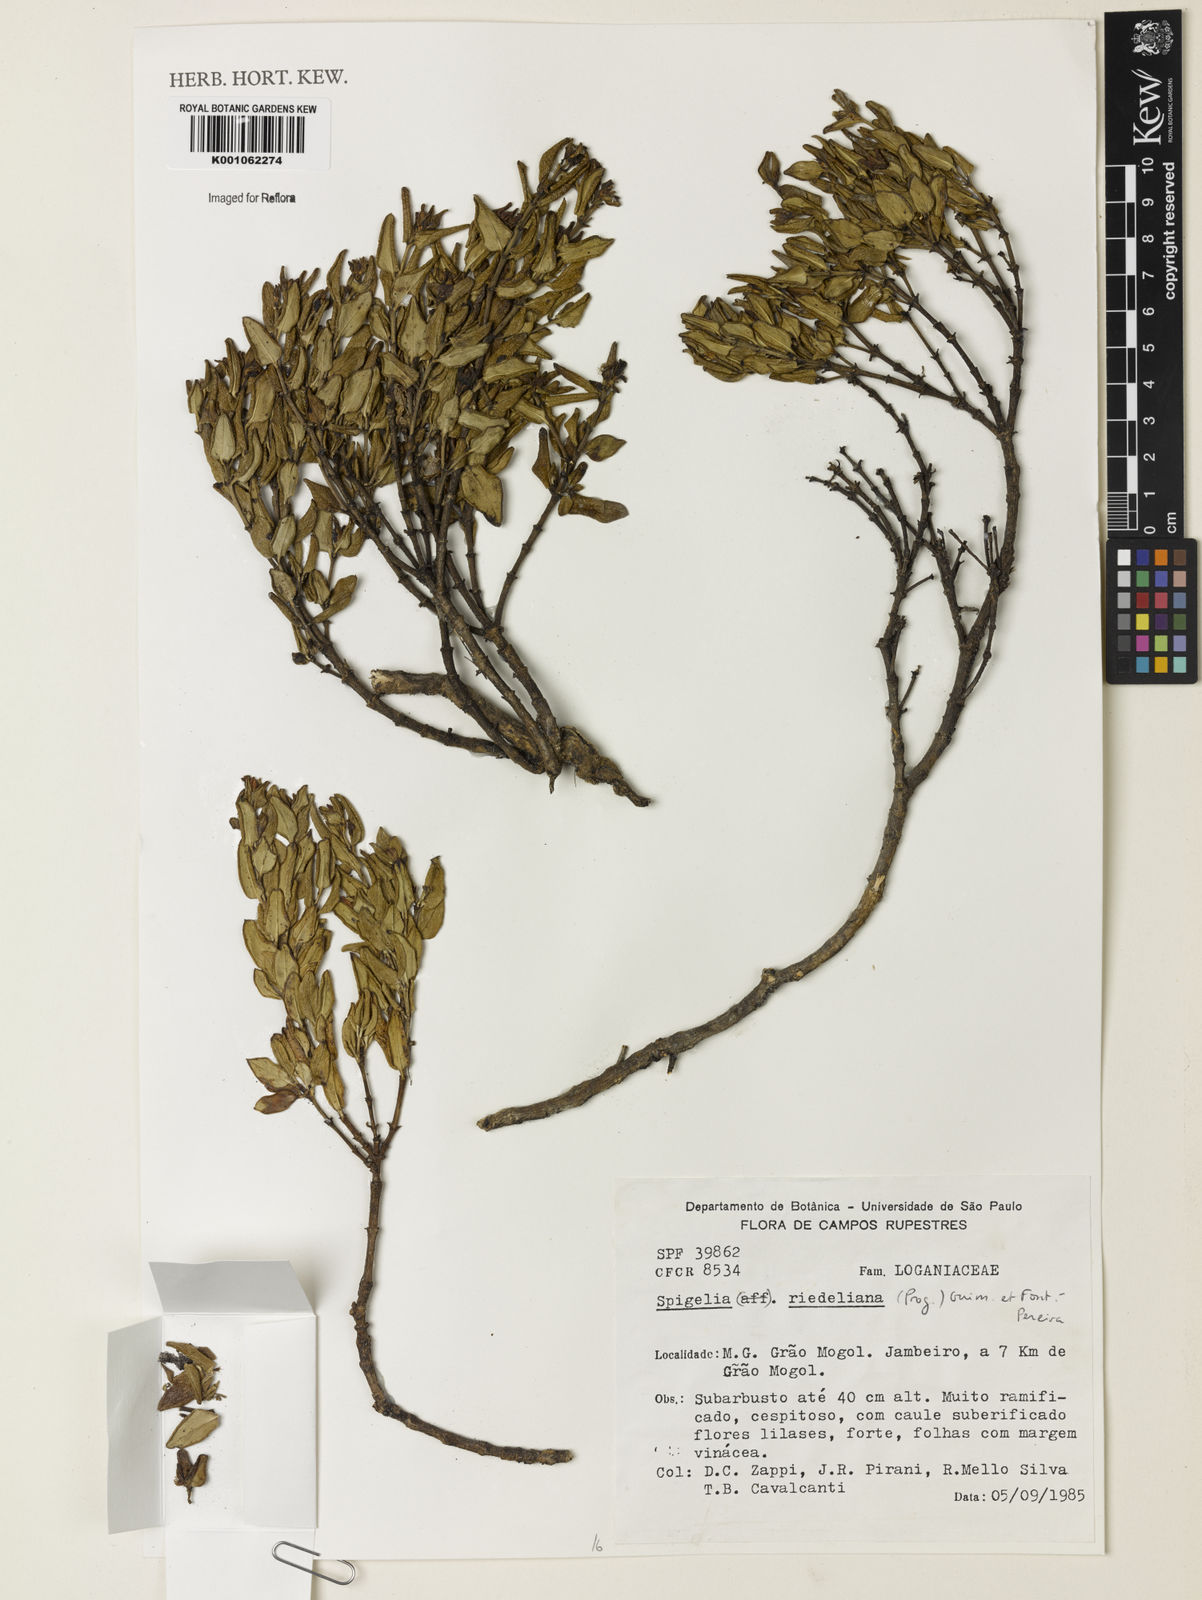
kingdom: Plantae
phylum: Tracheophyta
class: Magnoliopsida
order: Gentianales
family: Loganiaceae
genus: Spigelia
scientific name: Spigelia riedeliana
